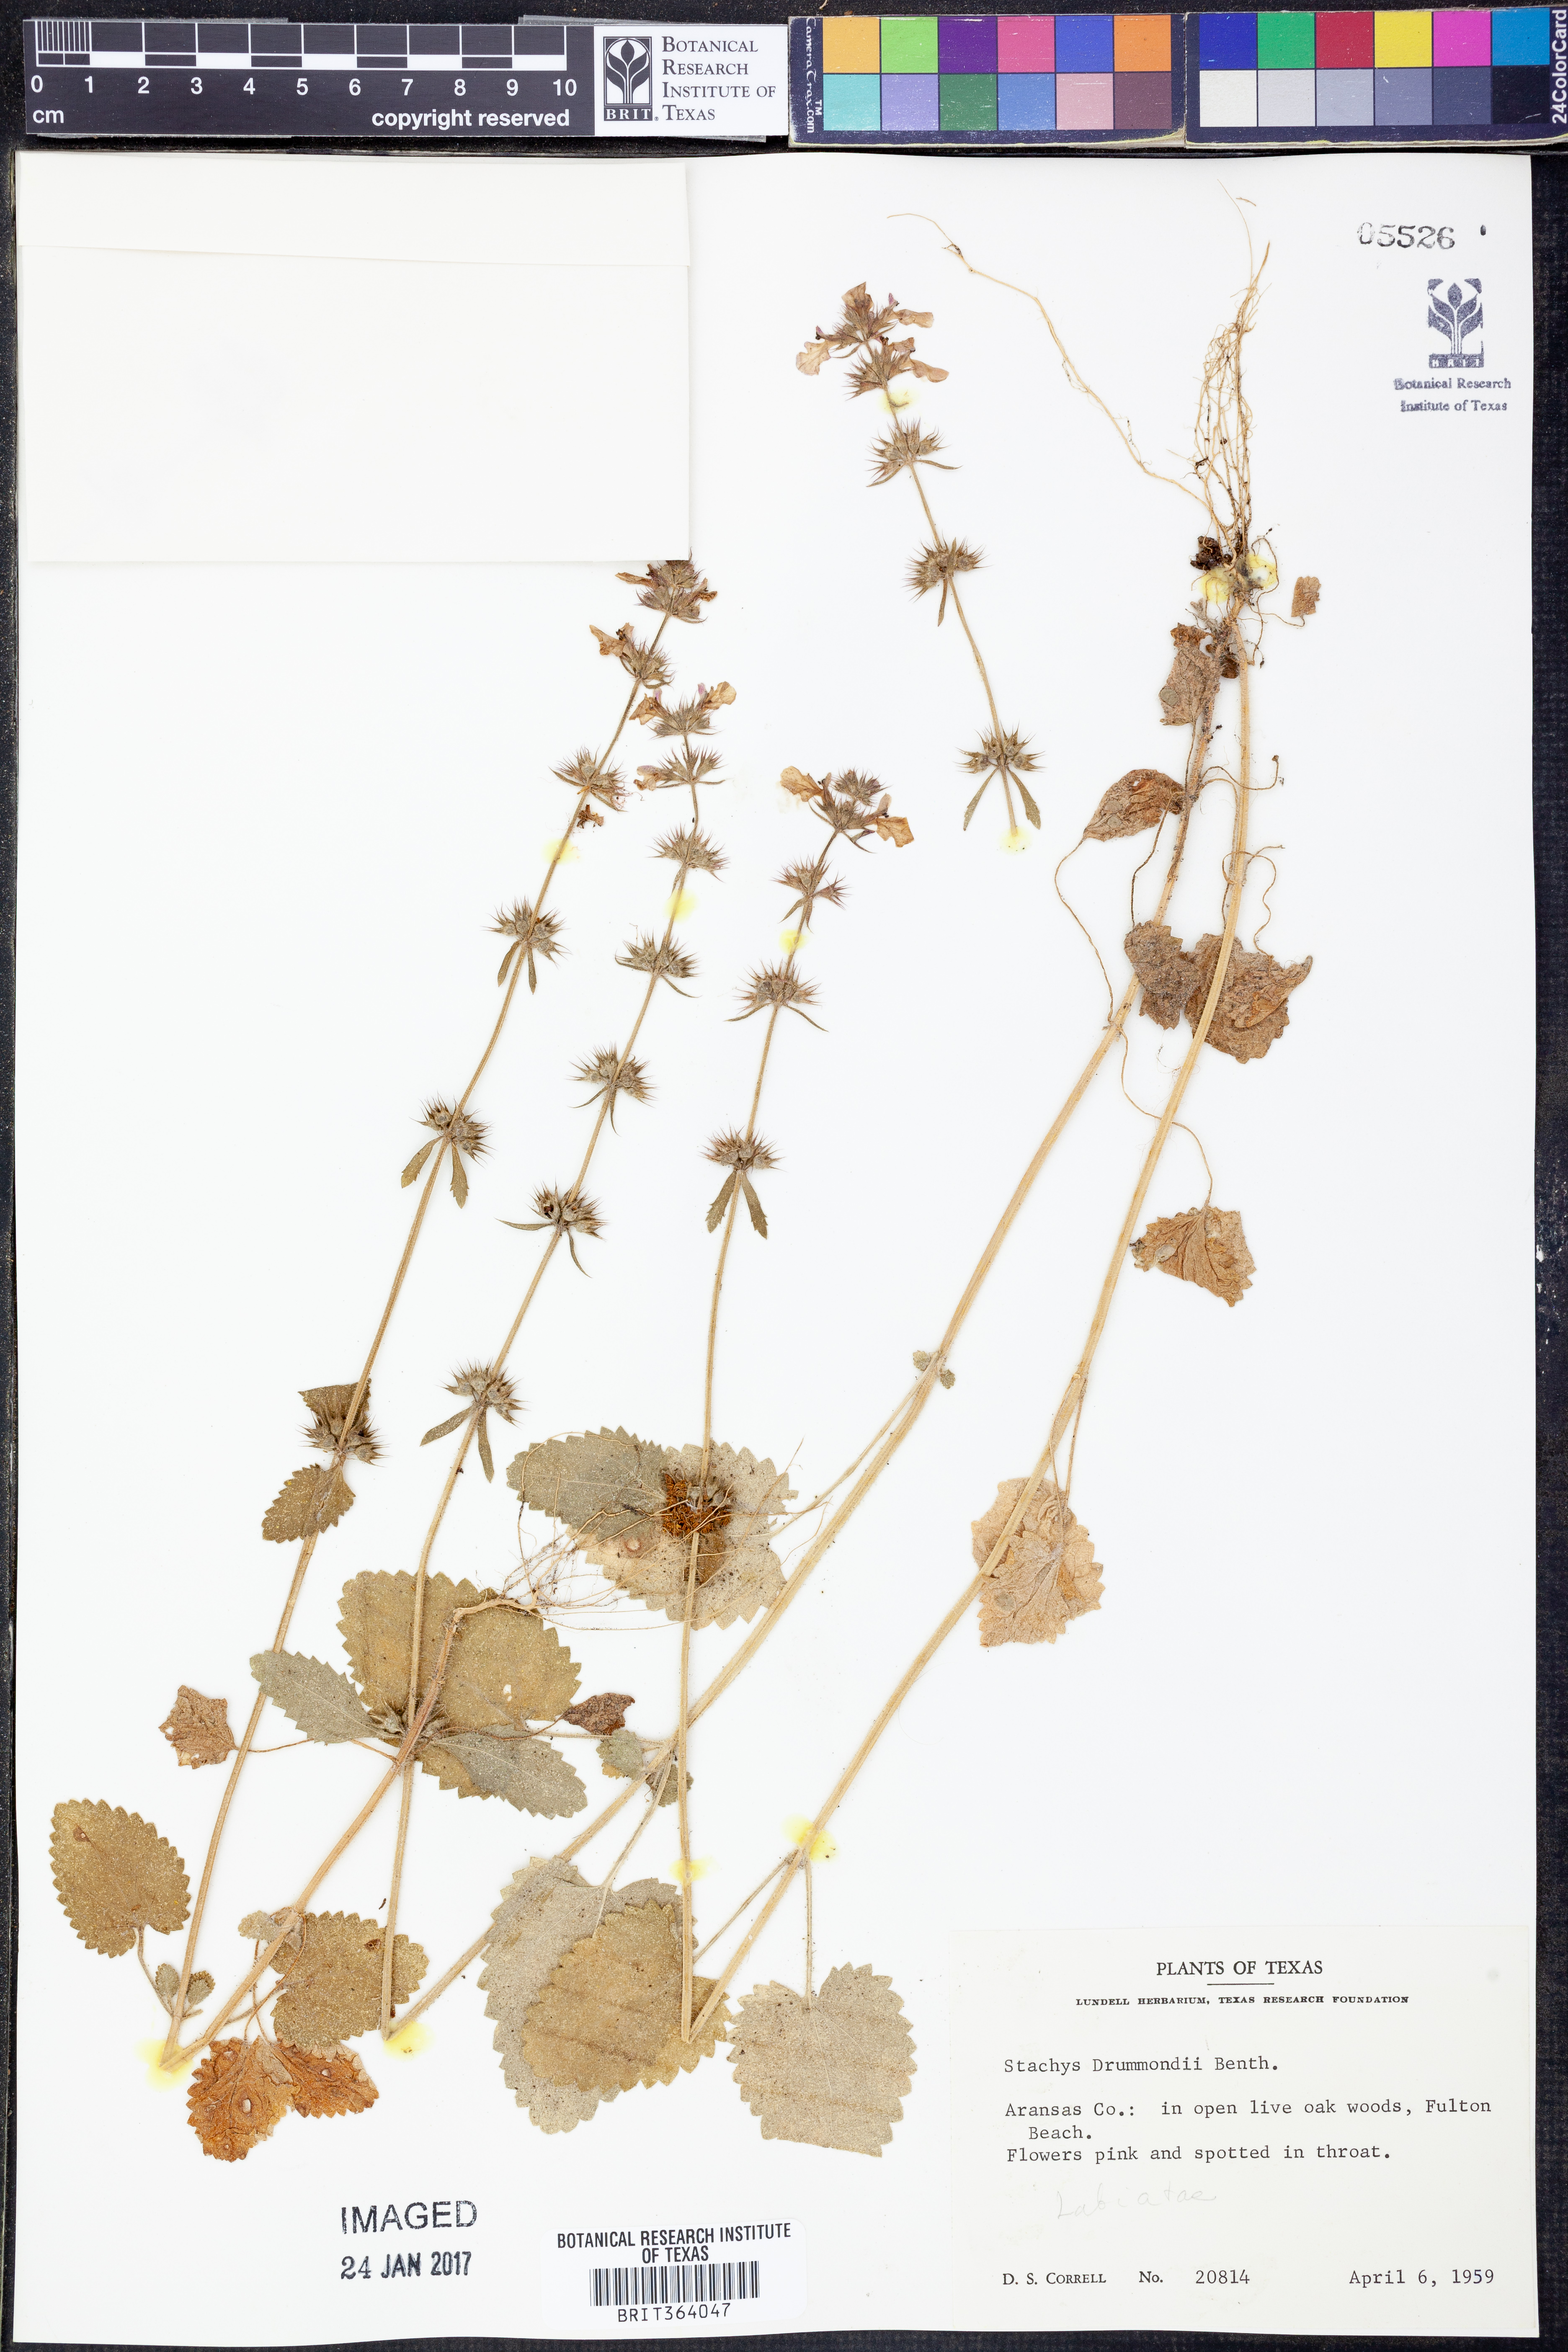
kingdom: Plantae
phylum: Tracheophyta
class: Magnoliopsida
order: Lamiales
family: Lamiaceae
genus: Stachys
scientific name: Stachys drummondii
